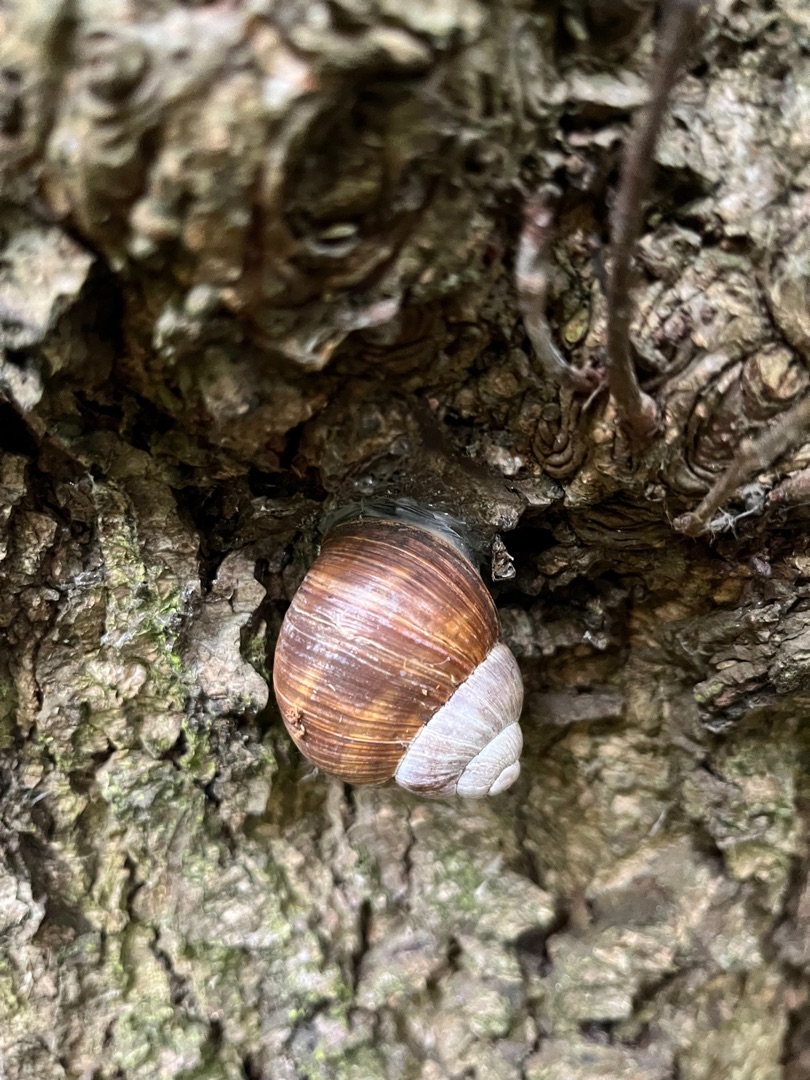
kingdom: Animalia
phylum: Mollusca
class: Gastropoda
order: Stylommatophora
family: Helicidae
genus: Helix
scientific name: Helix pomatia
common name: Vinbjergsnegl
